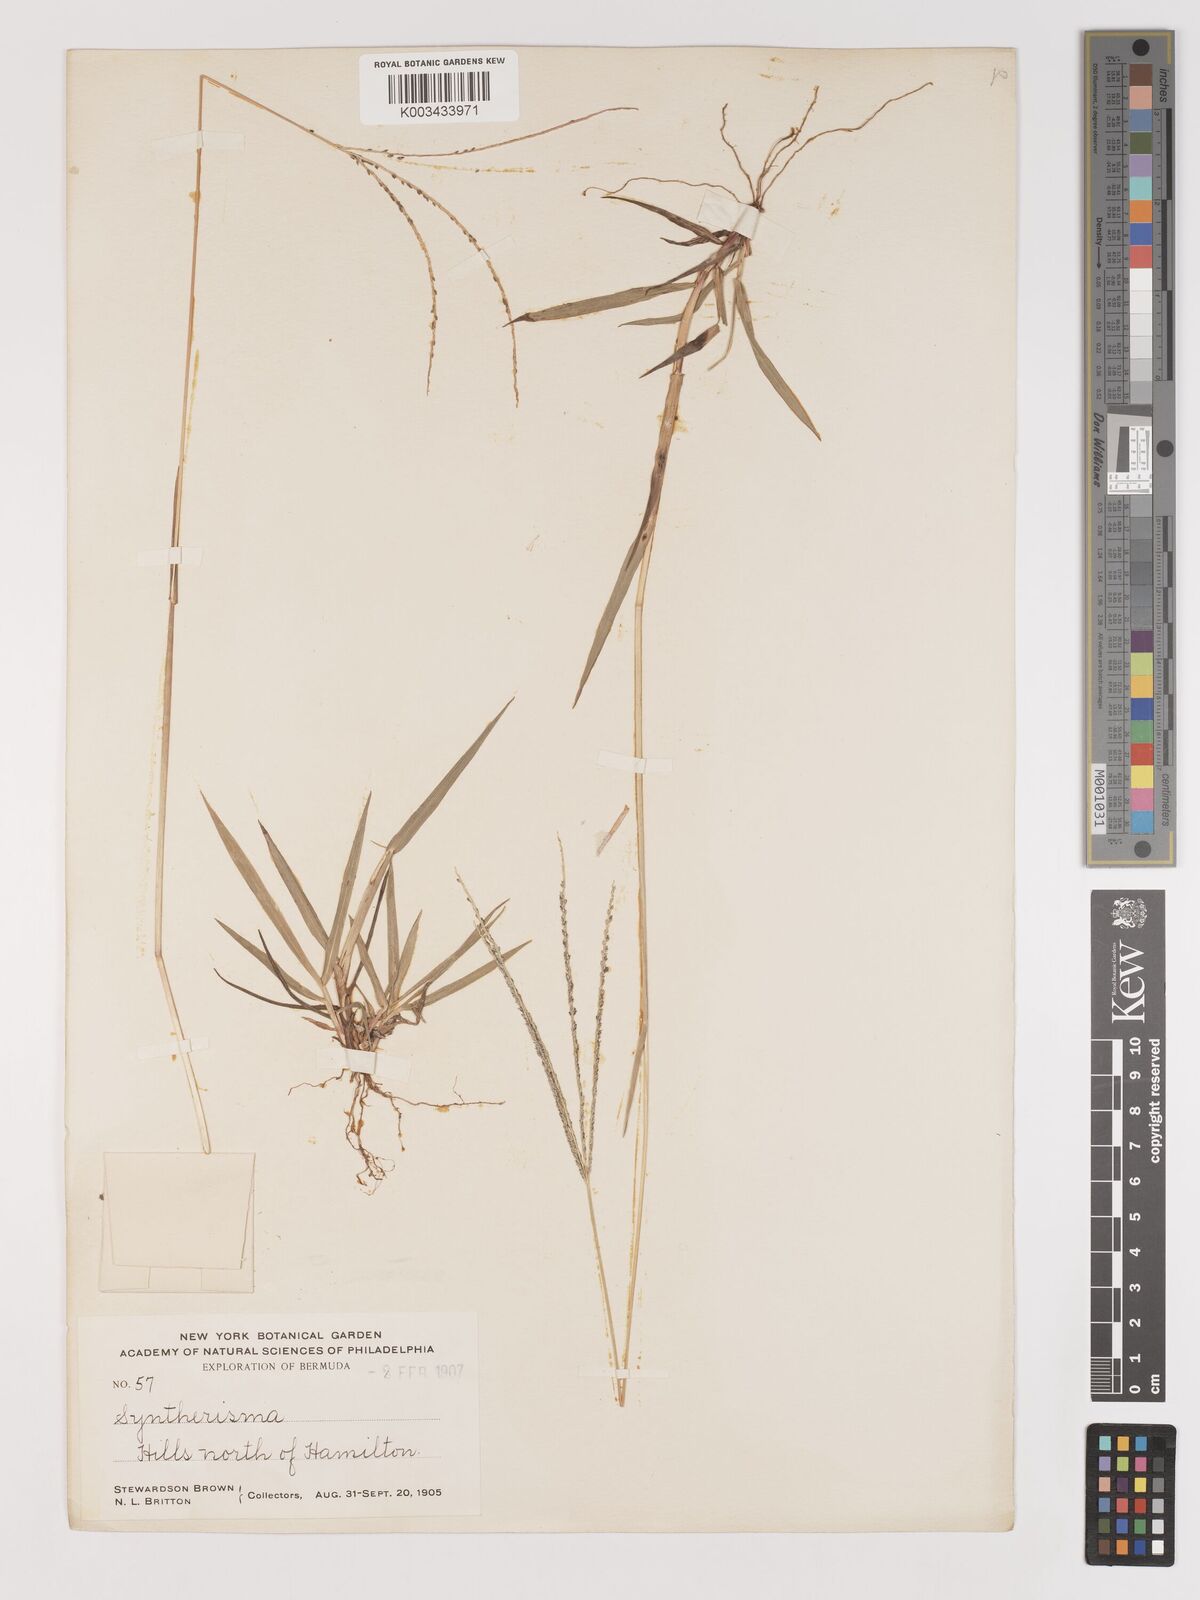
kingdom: Plantae
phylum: Tracheophyta
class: Liliopsida
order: Poales
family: Poaceae
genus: Digitaria
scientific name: Digitaria serotina
